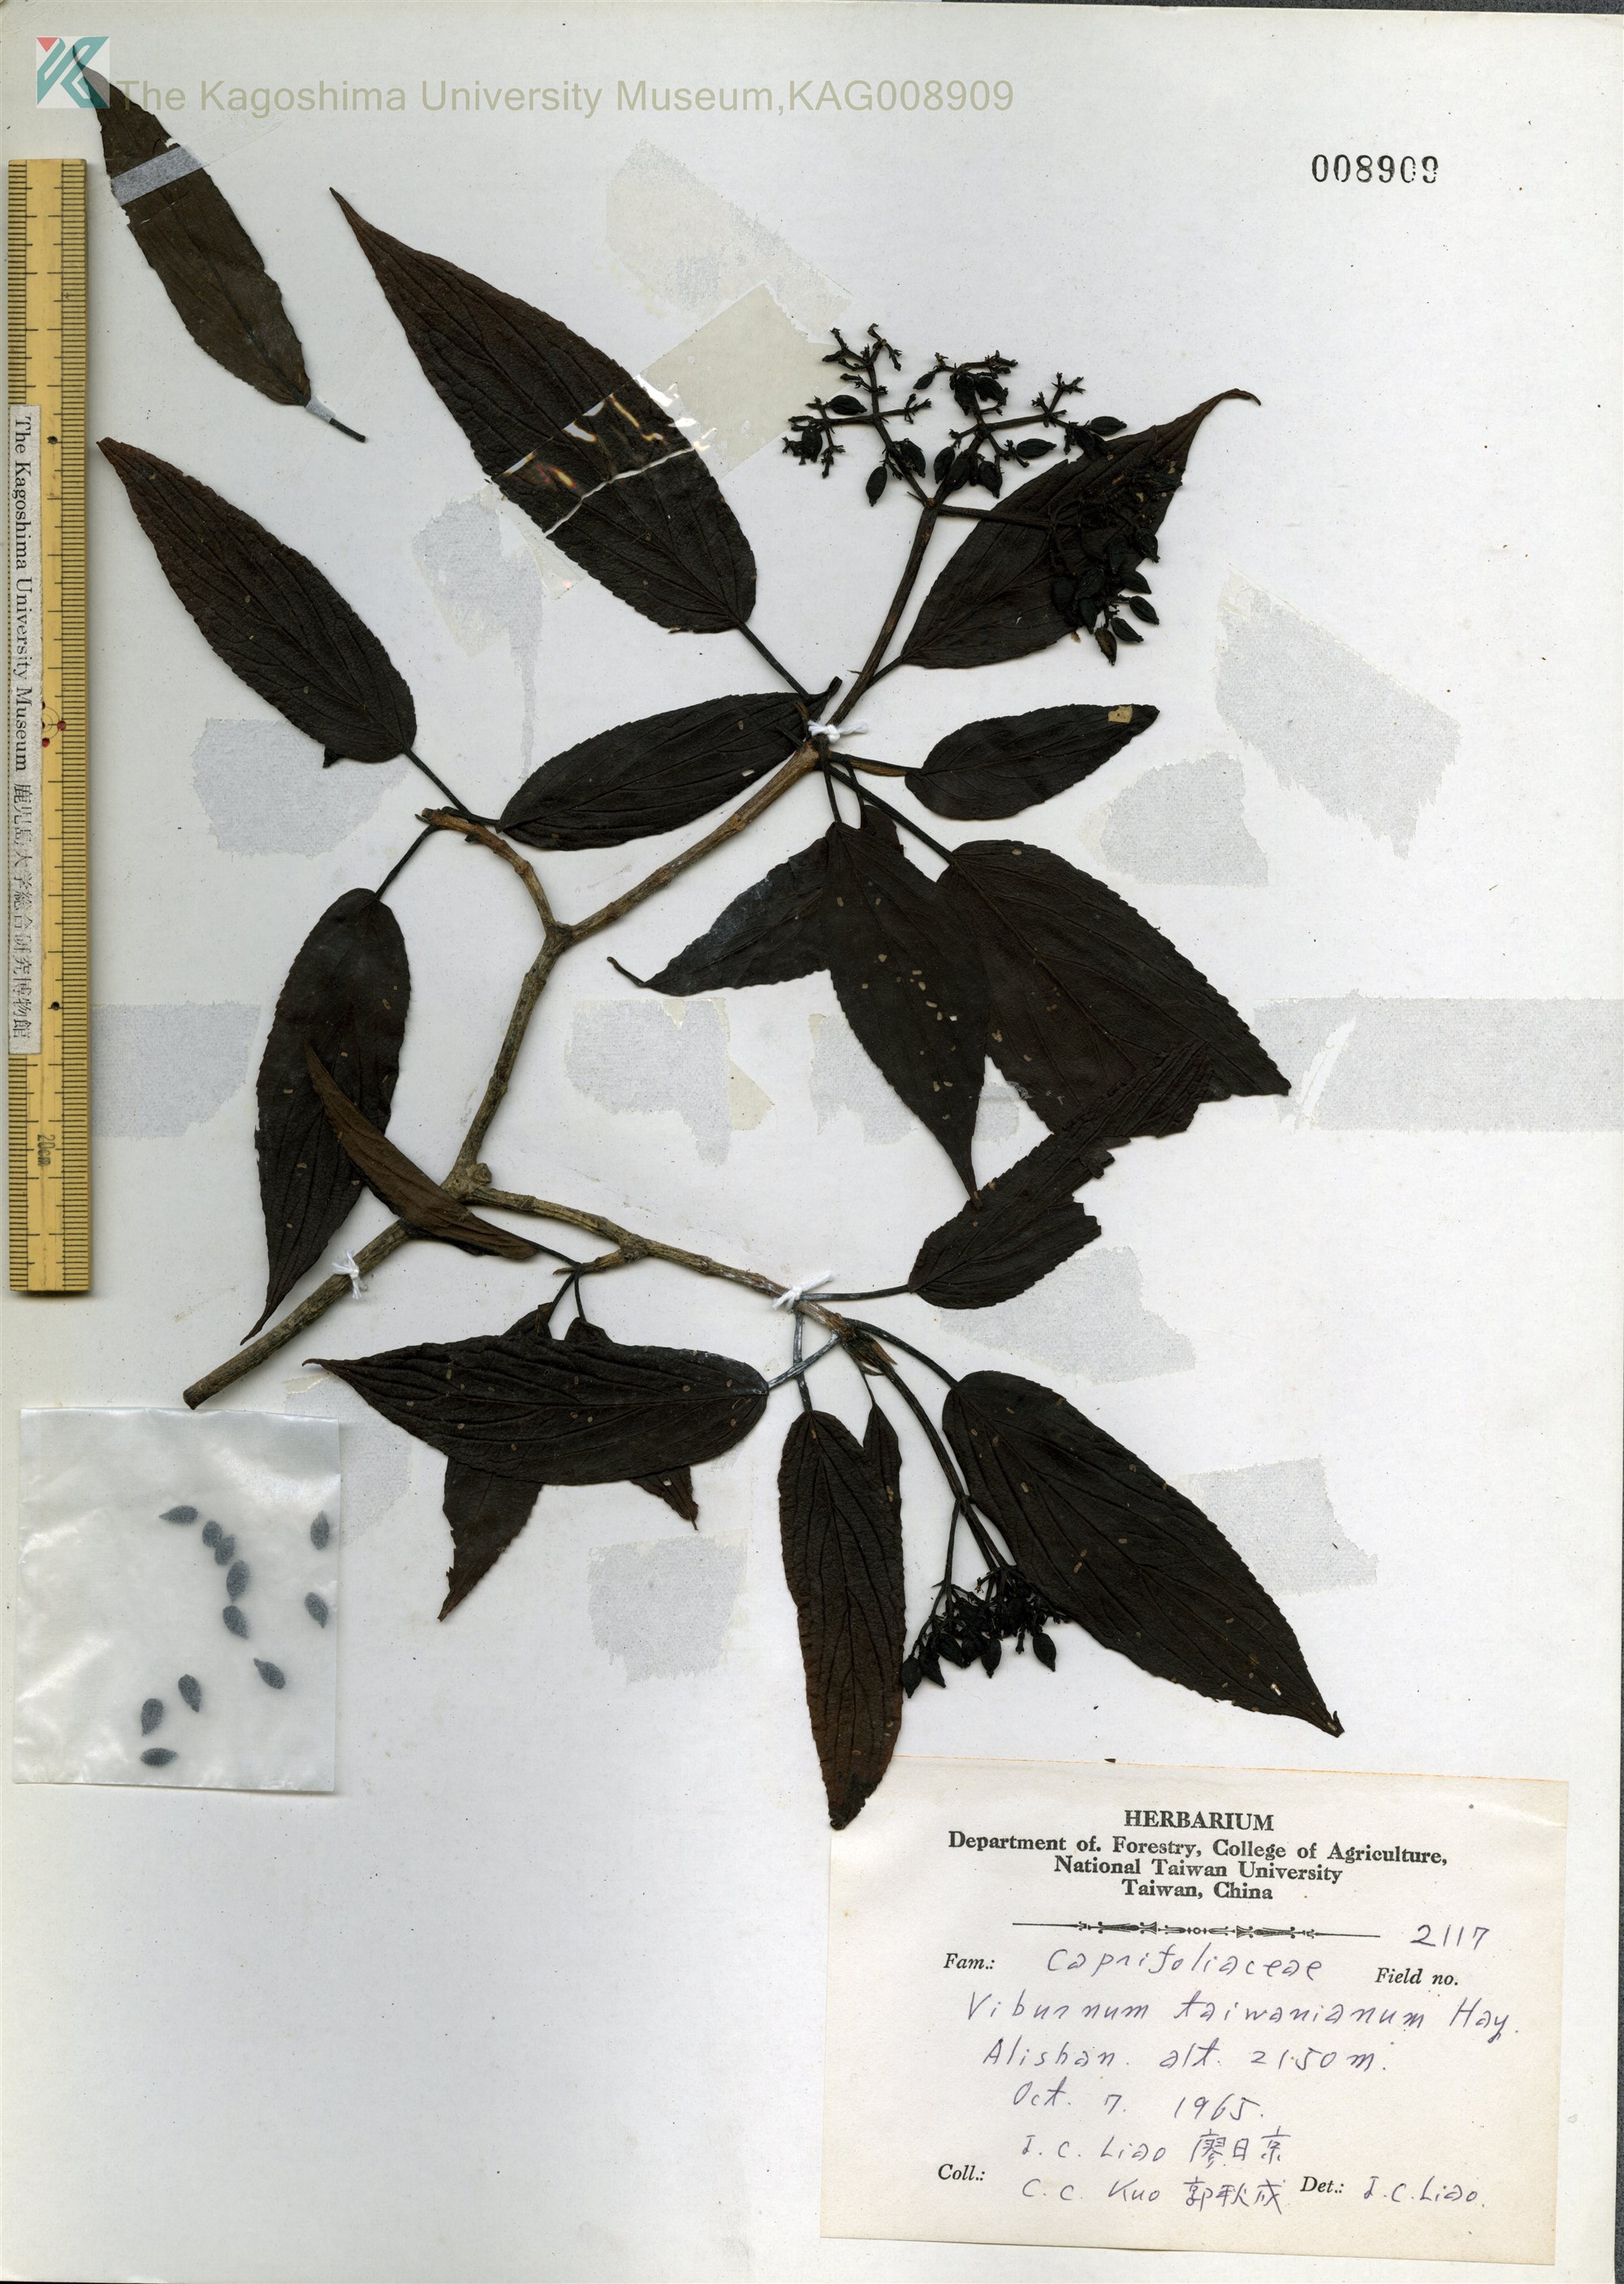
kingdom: Plantae
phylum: Tracheophyta
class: Magnoliopsida
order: Dipsacales
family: Viburnaceae
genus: Viburnum
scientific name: Viburnum urceolatum
